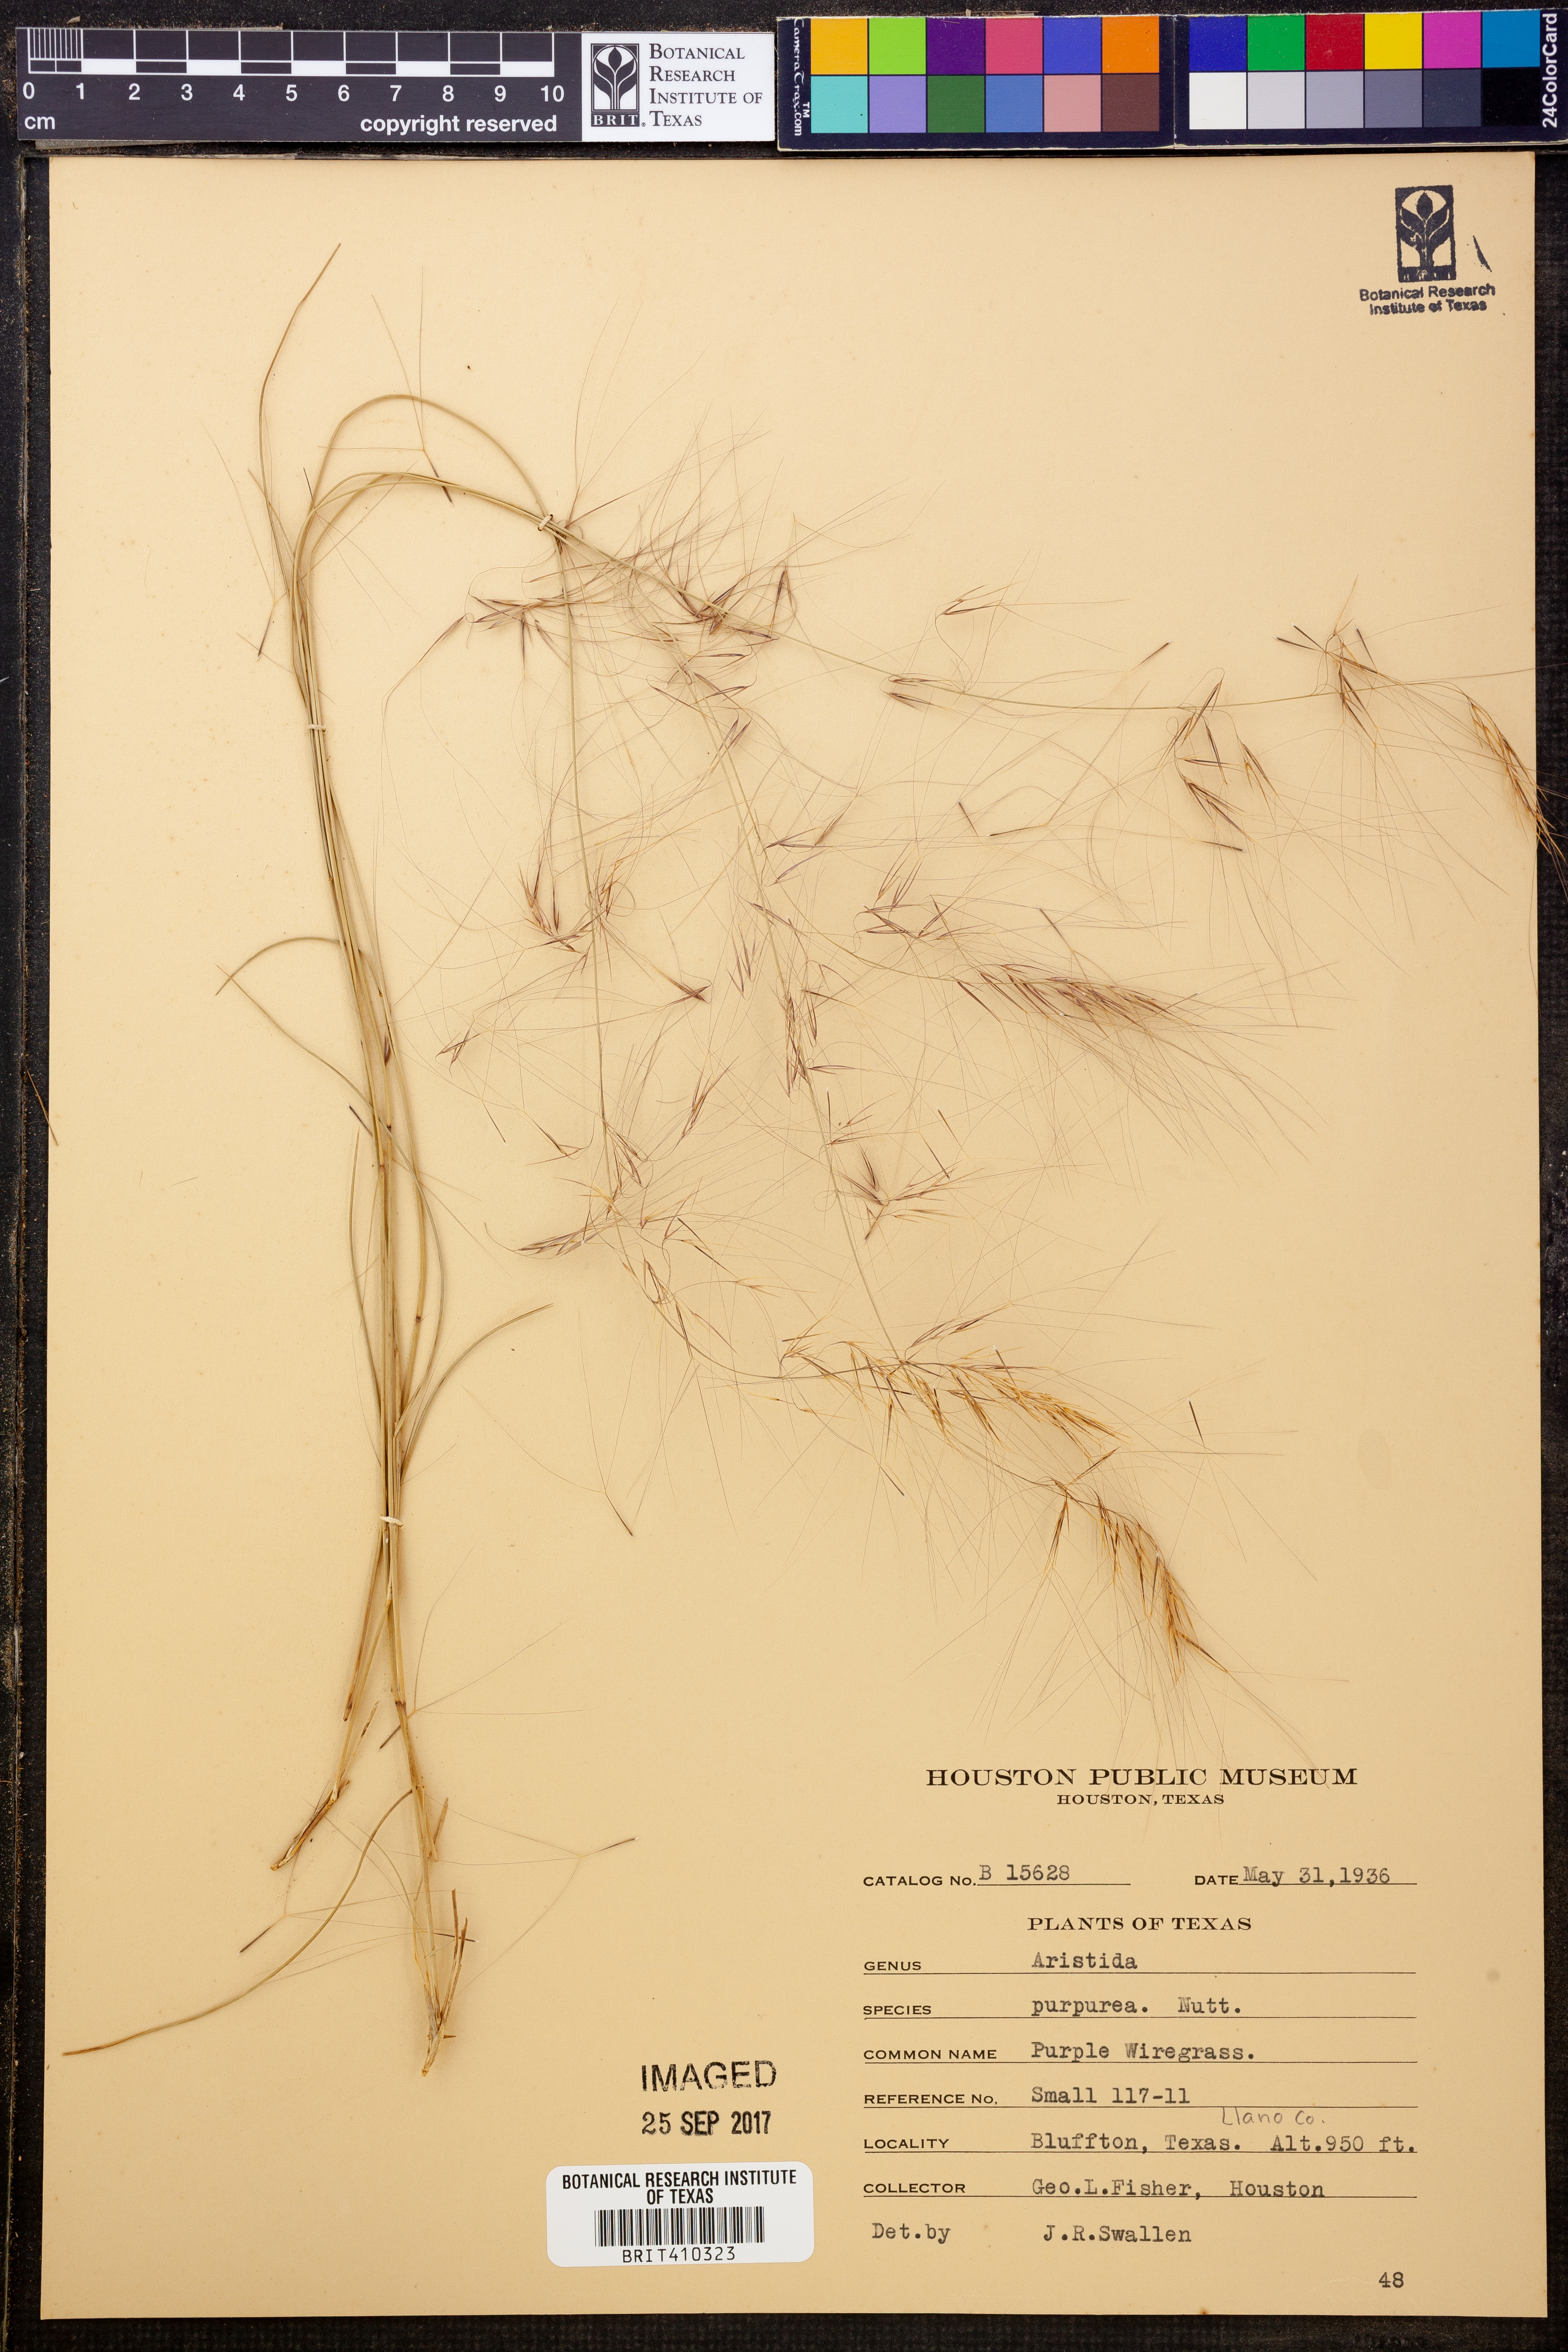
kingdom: Plantae
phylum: Tracheophyta
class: Liliopsida
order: Poales
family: Poaceae
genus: Aristida
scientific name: Aristida purpurea
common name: Purple threeawn
